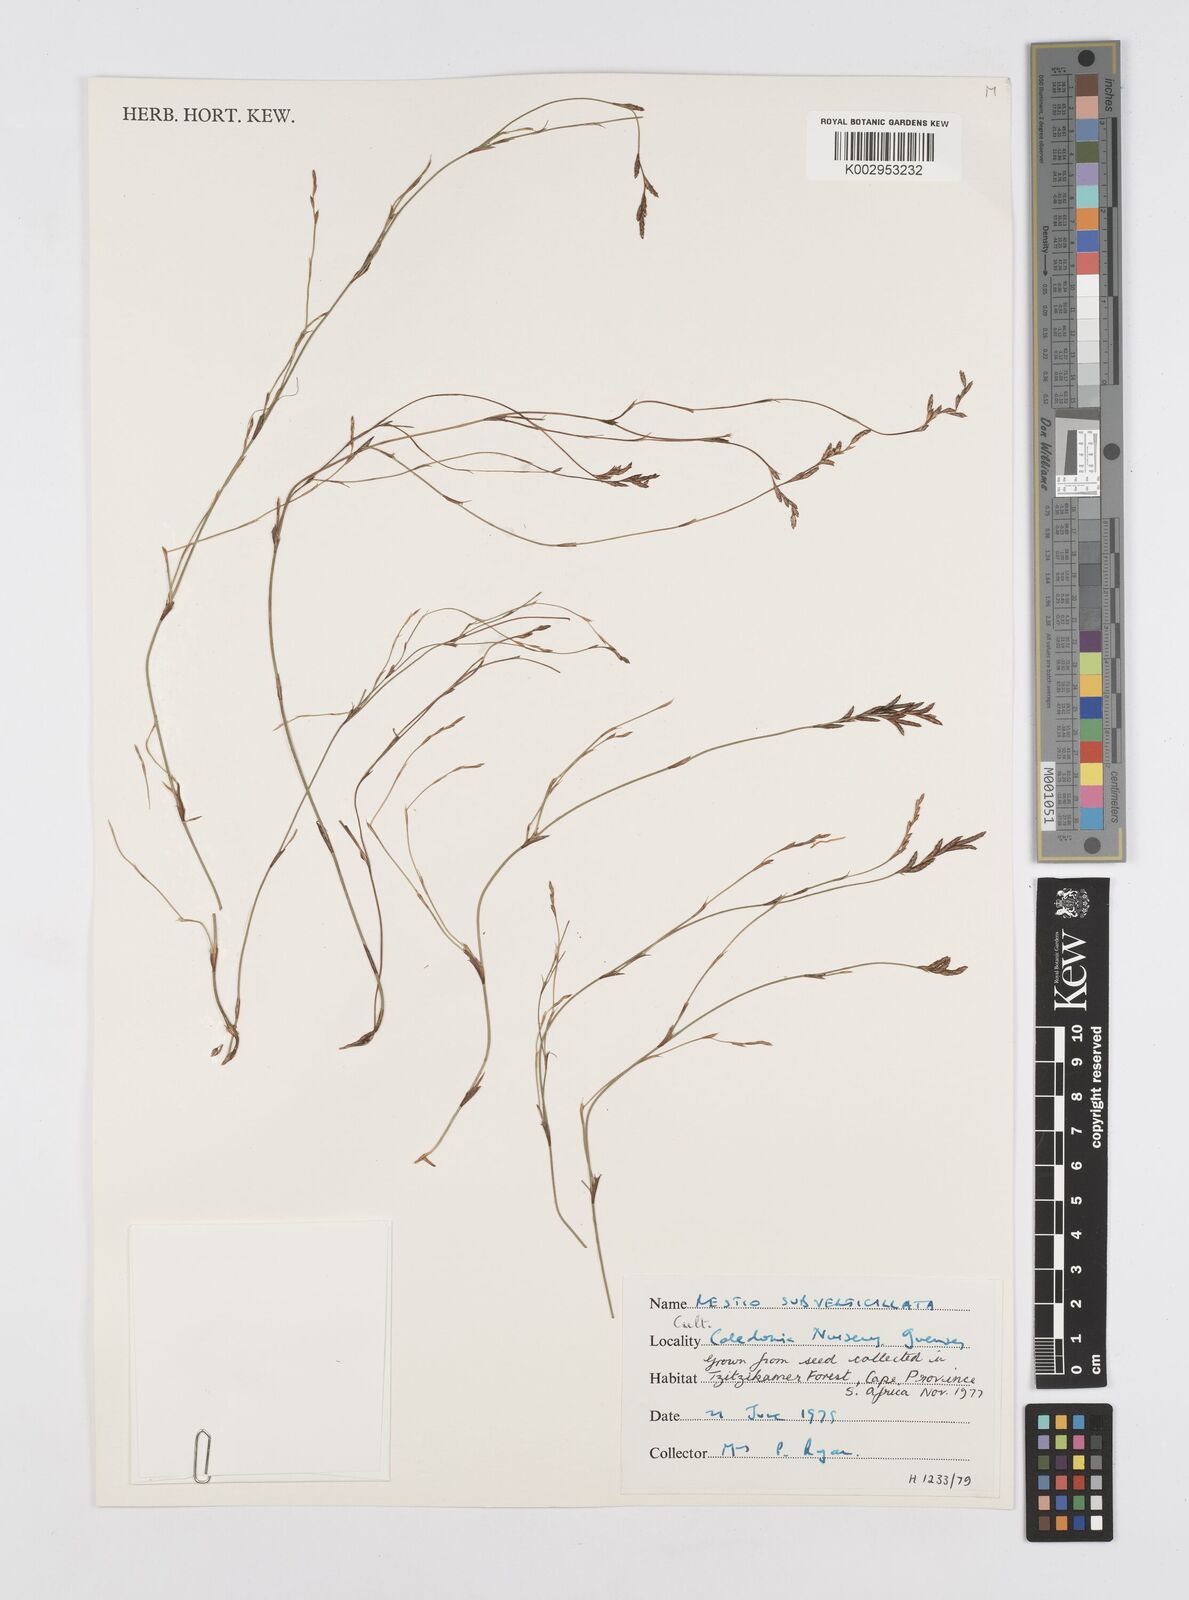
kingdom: Plantae
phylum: Tracheophyta
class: Liliopsida
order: Poales
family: Restionaceae
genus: Restio
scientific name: Restio subverticillatus
